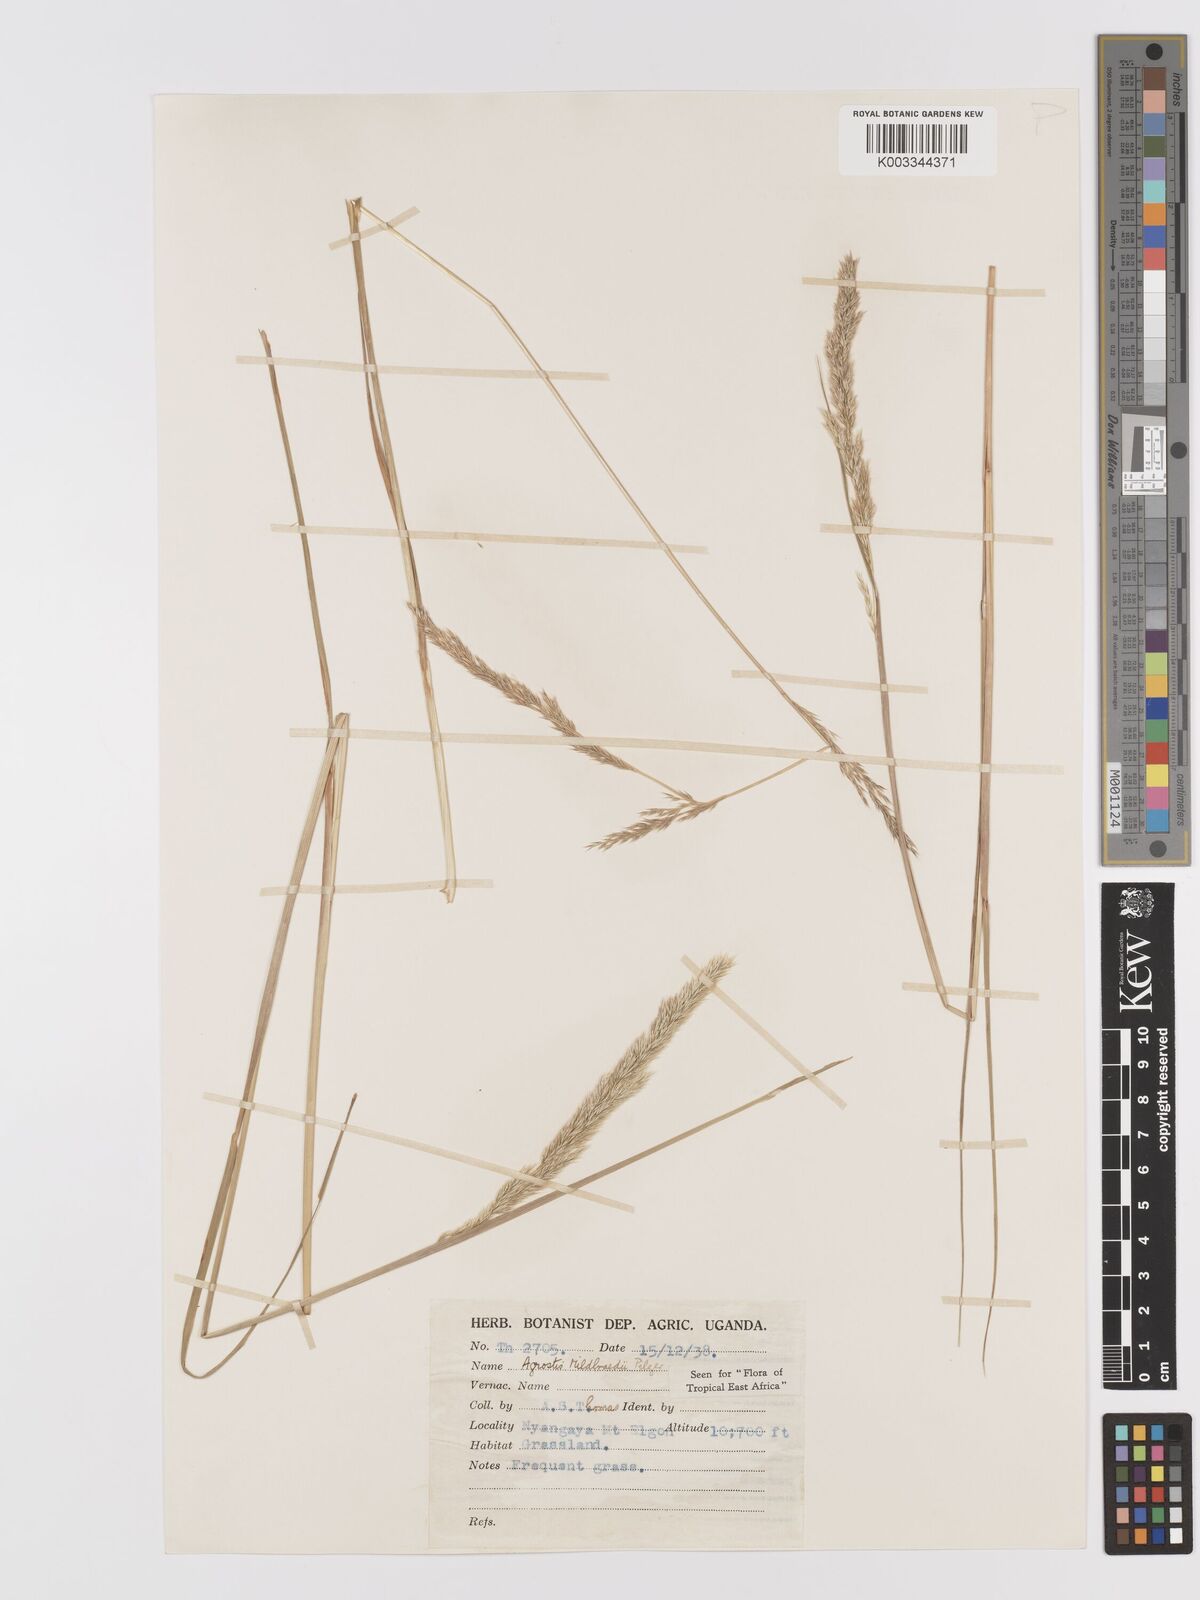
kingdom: Plantae
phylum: Tracheophyta
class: Liliopsida
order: Poales
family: Poaceae
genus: Agrostis
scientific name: Agrostis quinqueseta
